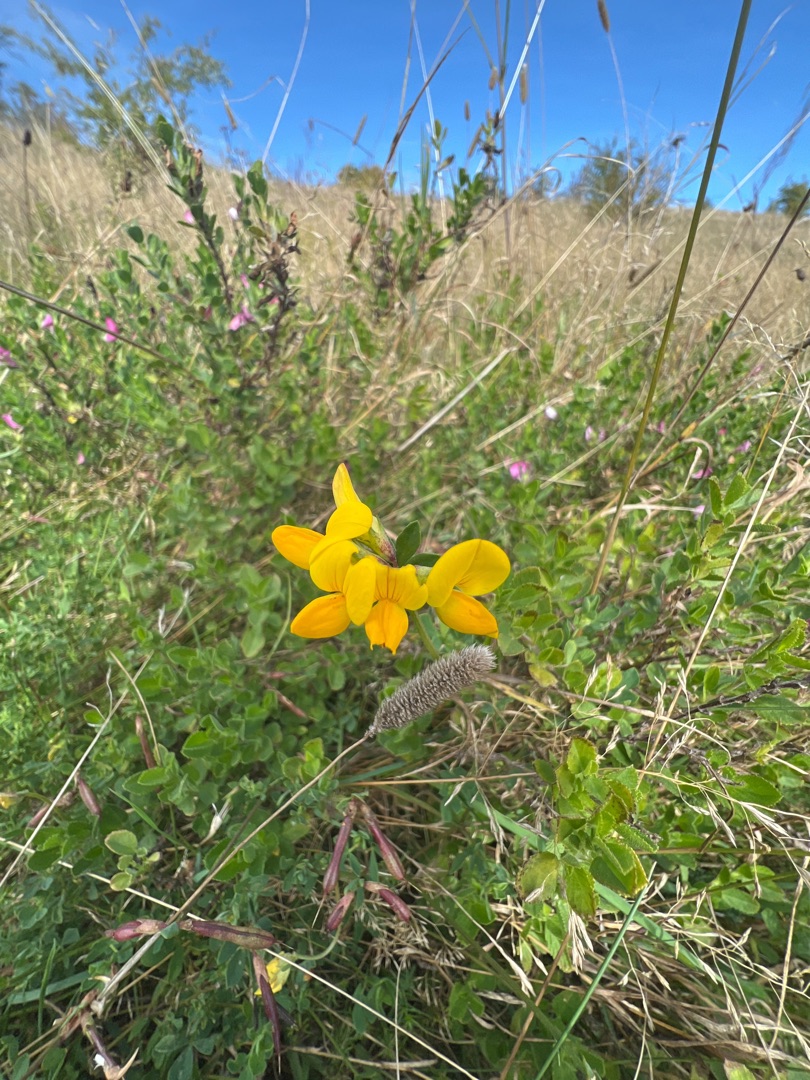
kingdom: Plantae
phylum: Tracheophyta
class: Magnoliopsida
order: Fabales
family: Fabaceae
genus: Lotus
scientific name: Lotus corniculatus
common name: Almindelig kællingetand
